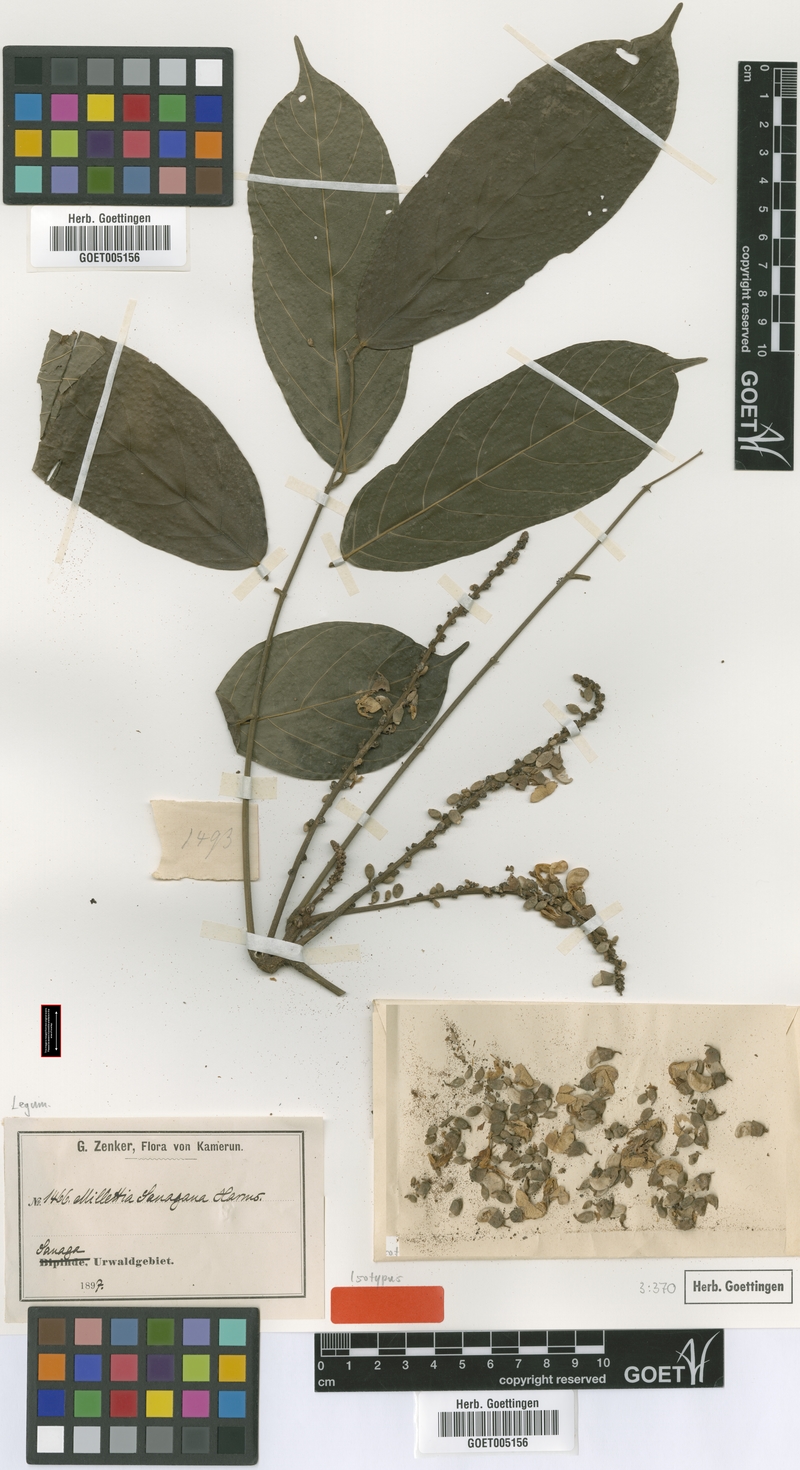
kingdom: Plantae
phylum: Tracheophyta
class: Magnoliopsida
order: Fabales
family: Fabaceae
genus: Millettia
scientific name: Millettia sanagana
